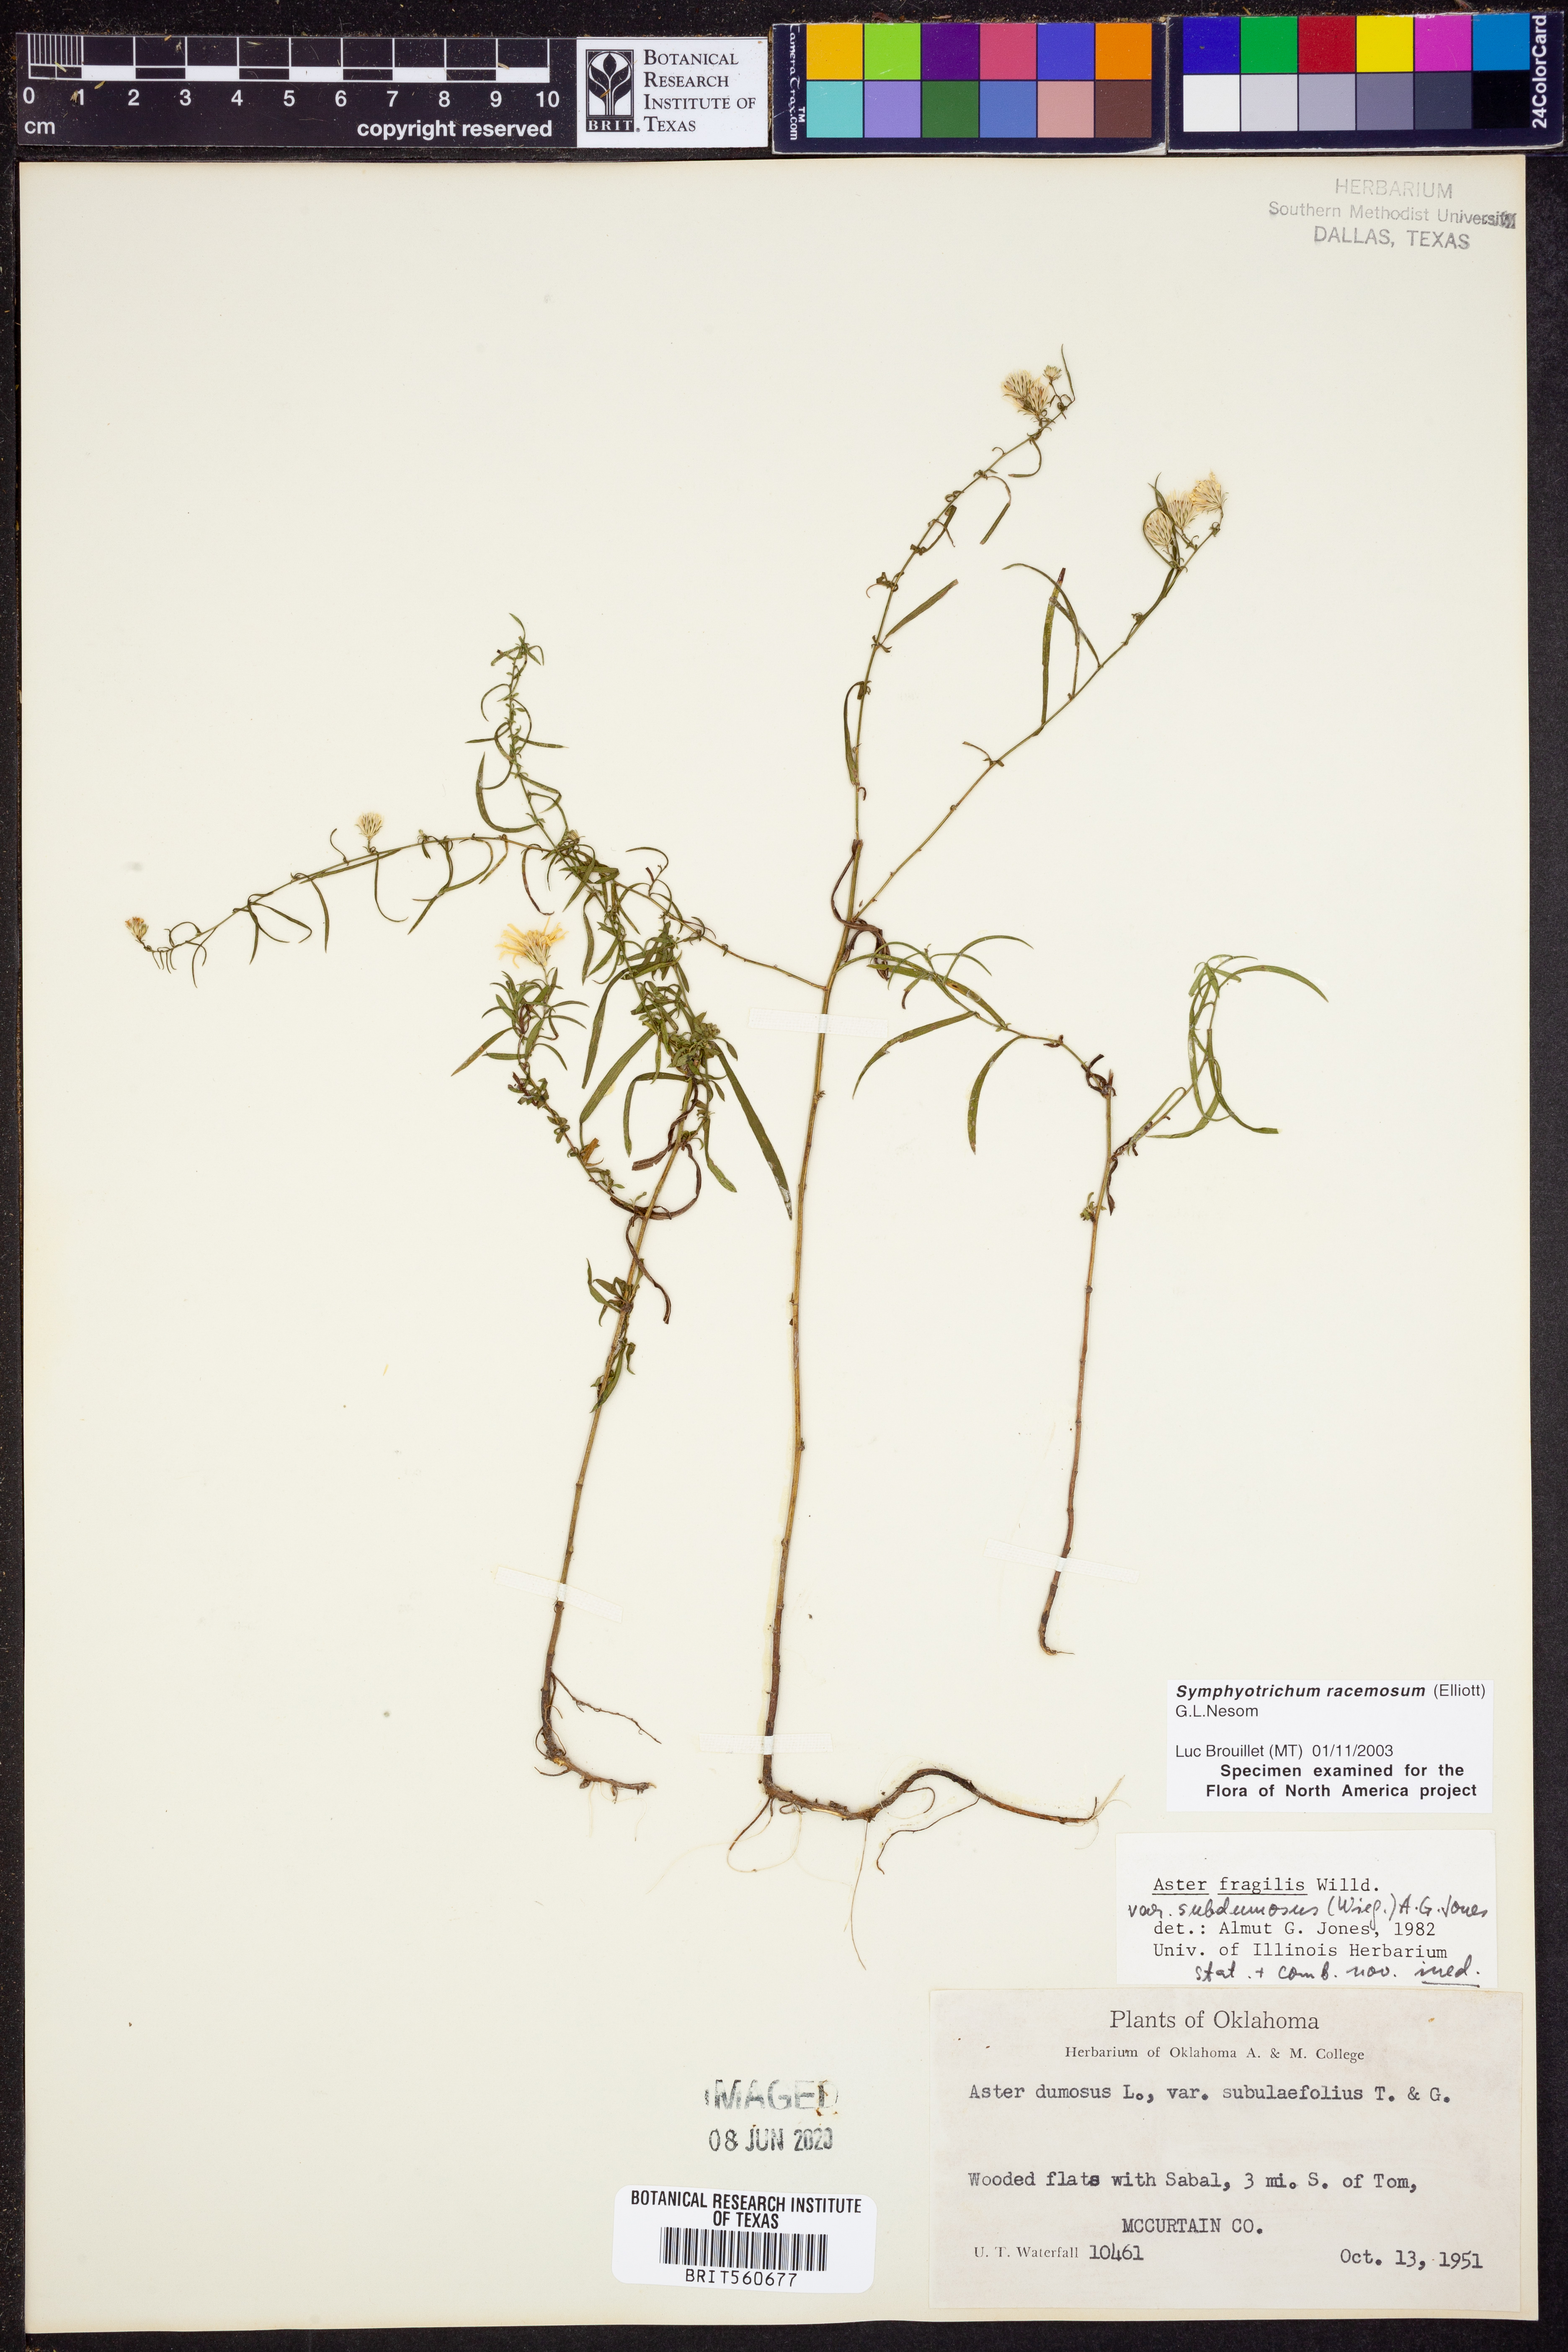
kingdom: Plantae
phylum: Tracheophyta
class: Magnoliopsida
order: Asterales
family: Asteraceae
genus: Symphyotrichum
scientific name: Symphyotrichum racemosum
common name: Small white aster
